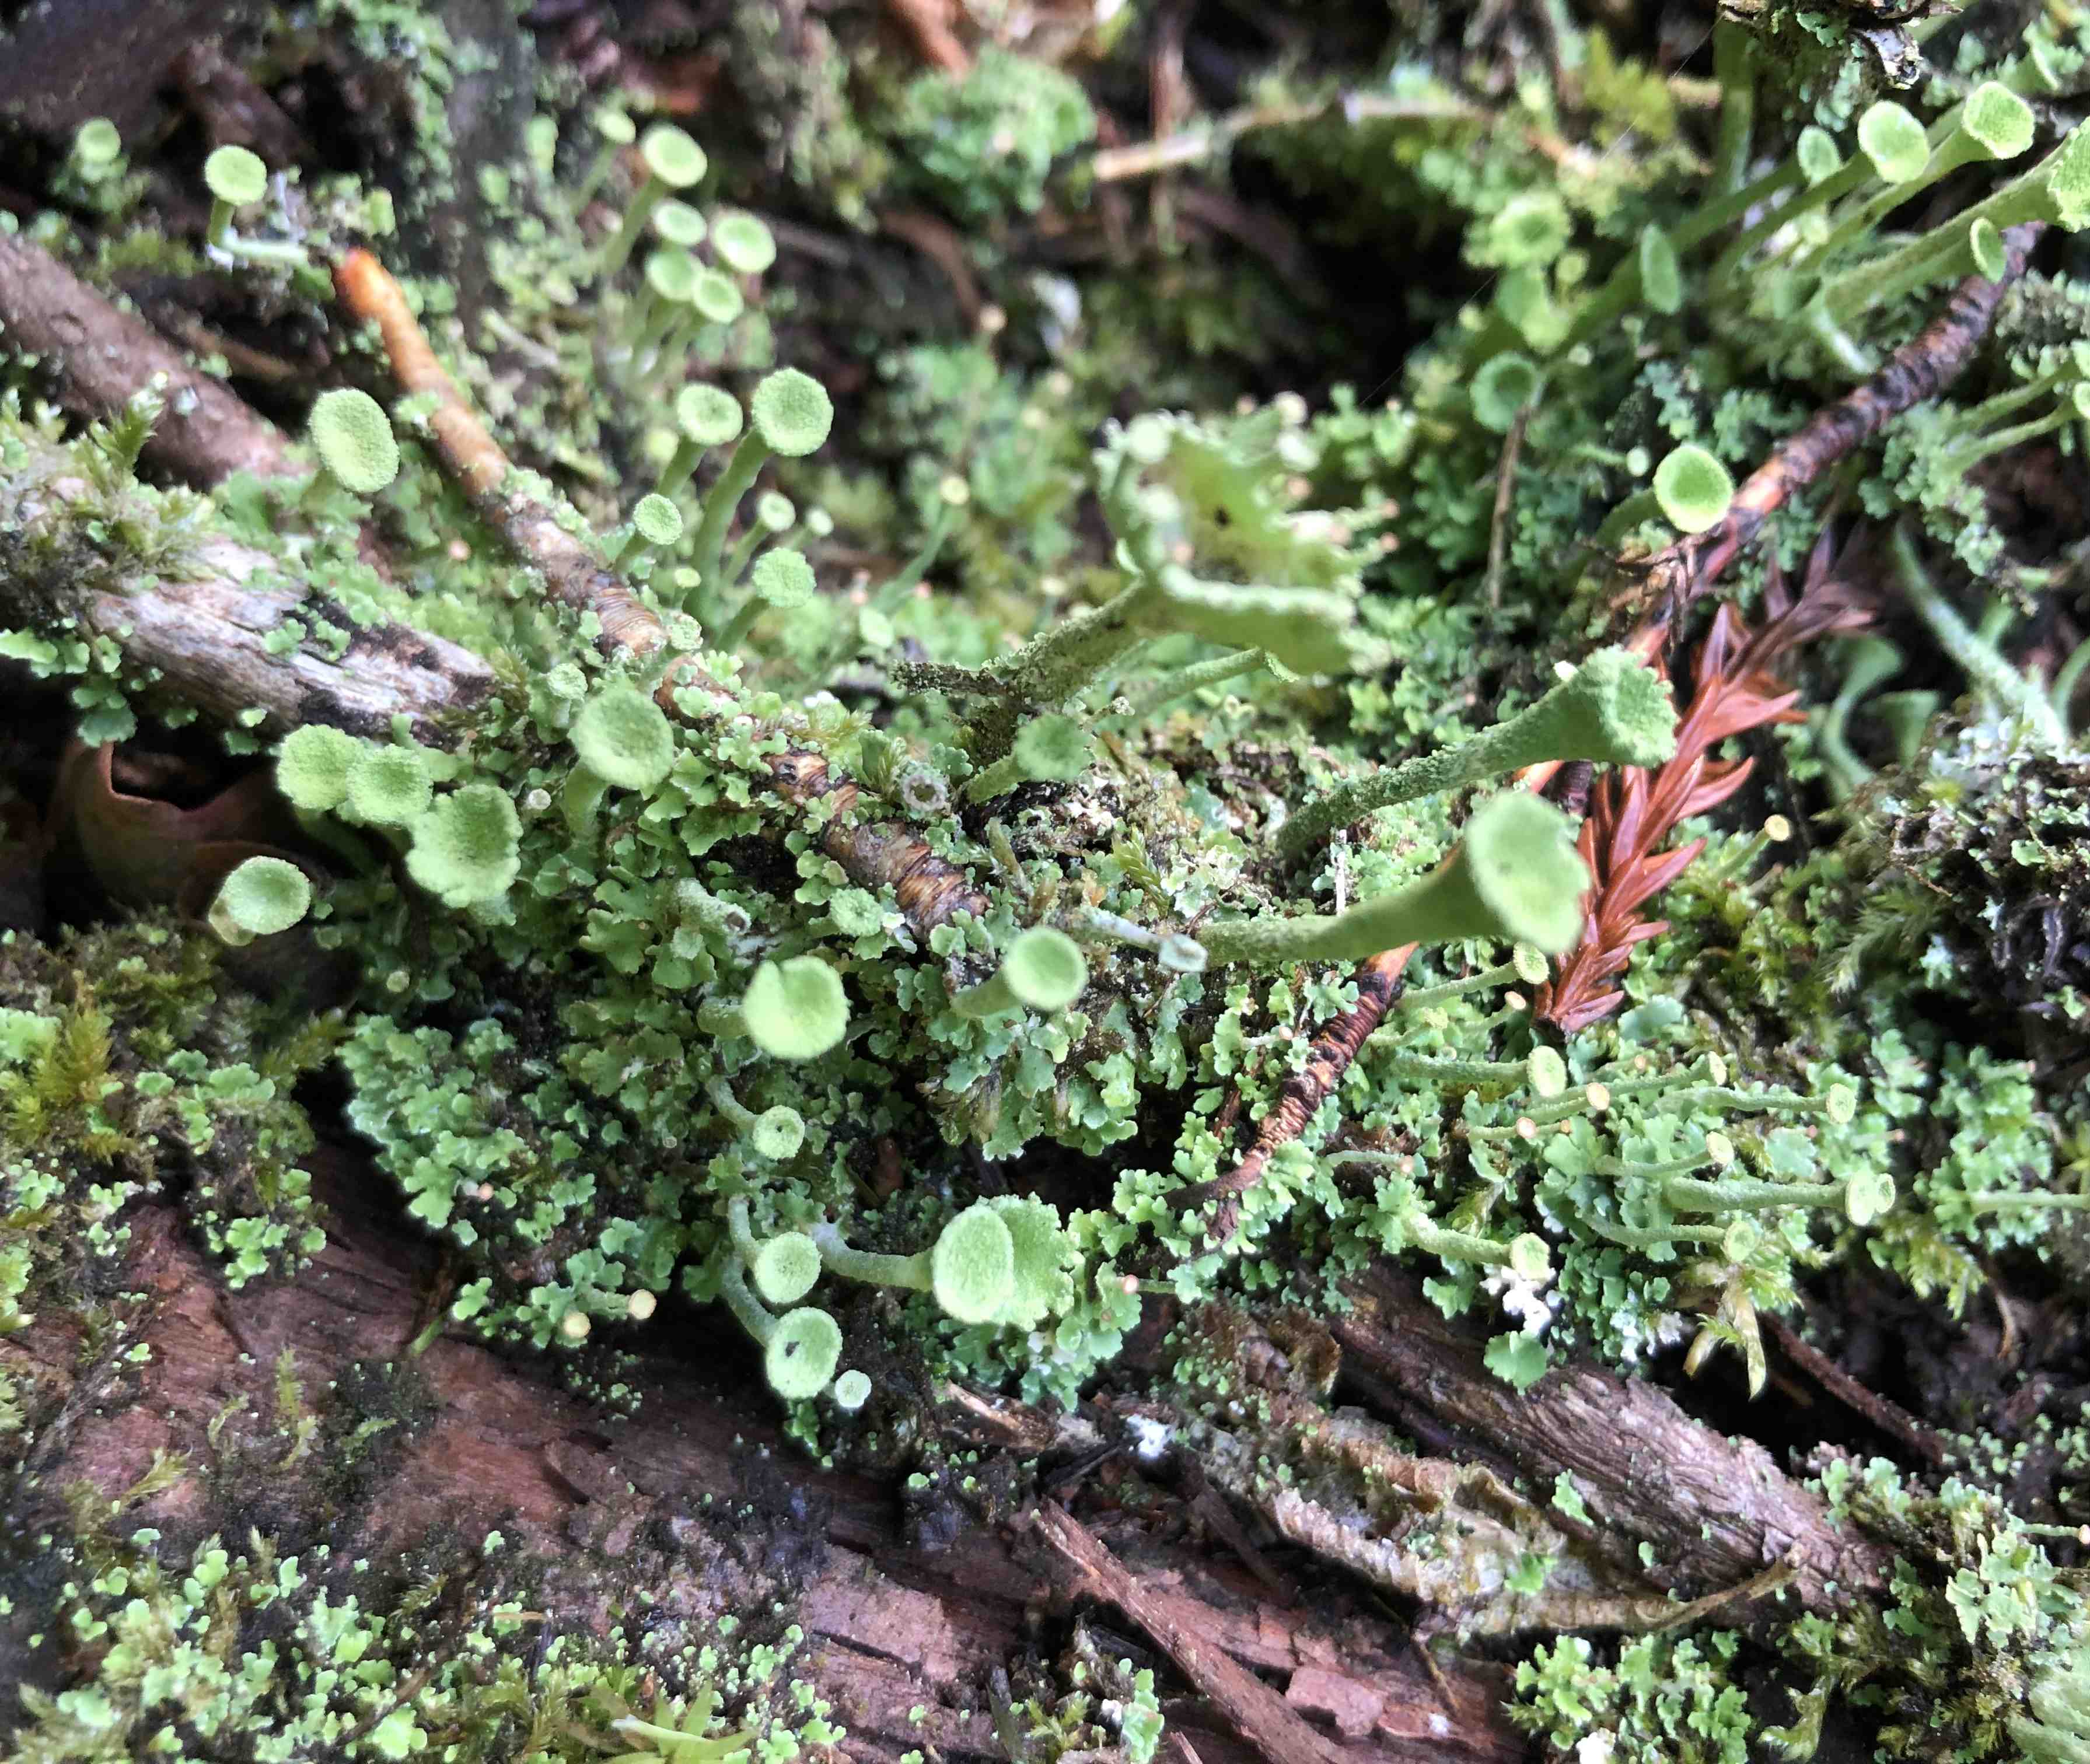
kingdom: Fungi
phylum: Ascomycota
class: Lecanoromycetes
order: Lecanorales
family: Cladoniaceae
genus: Cladonia
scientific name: Cladonia fimbriata
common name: bleggrøn bægerlav
